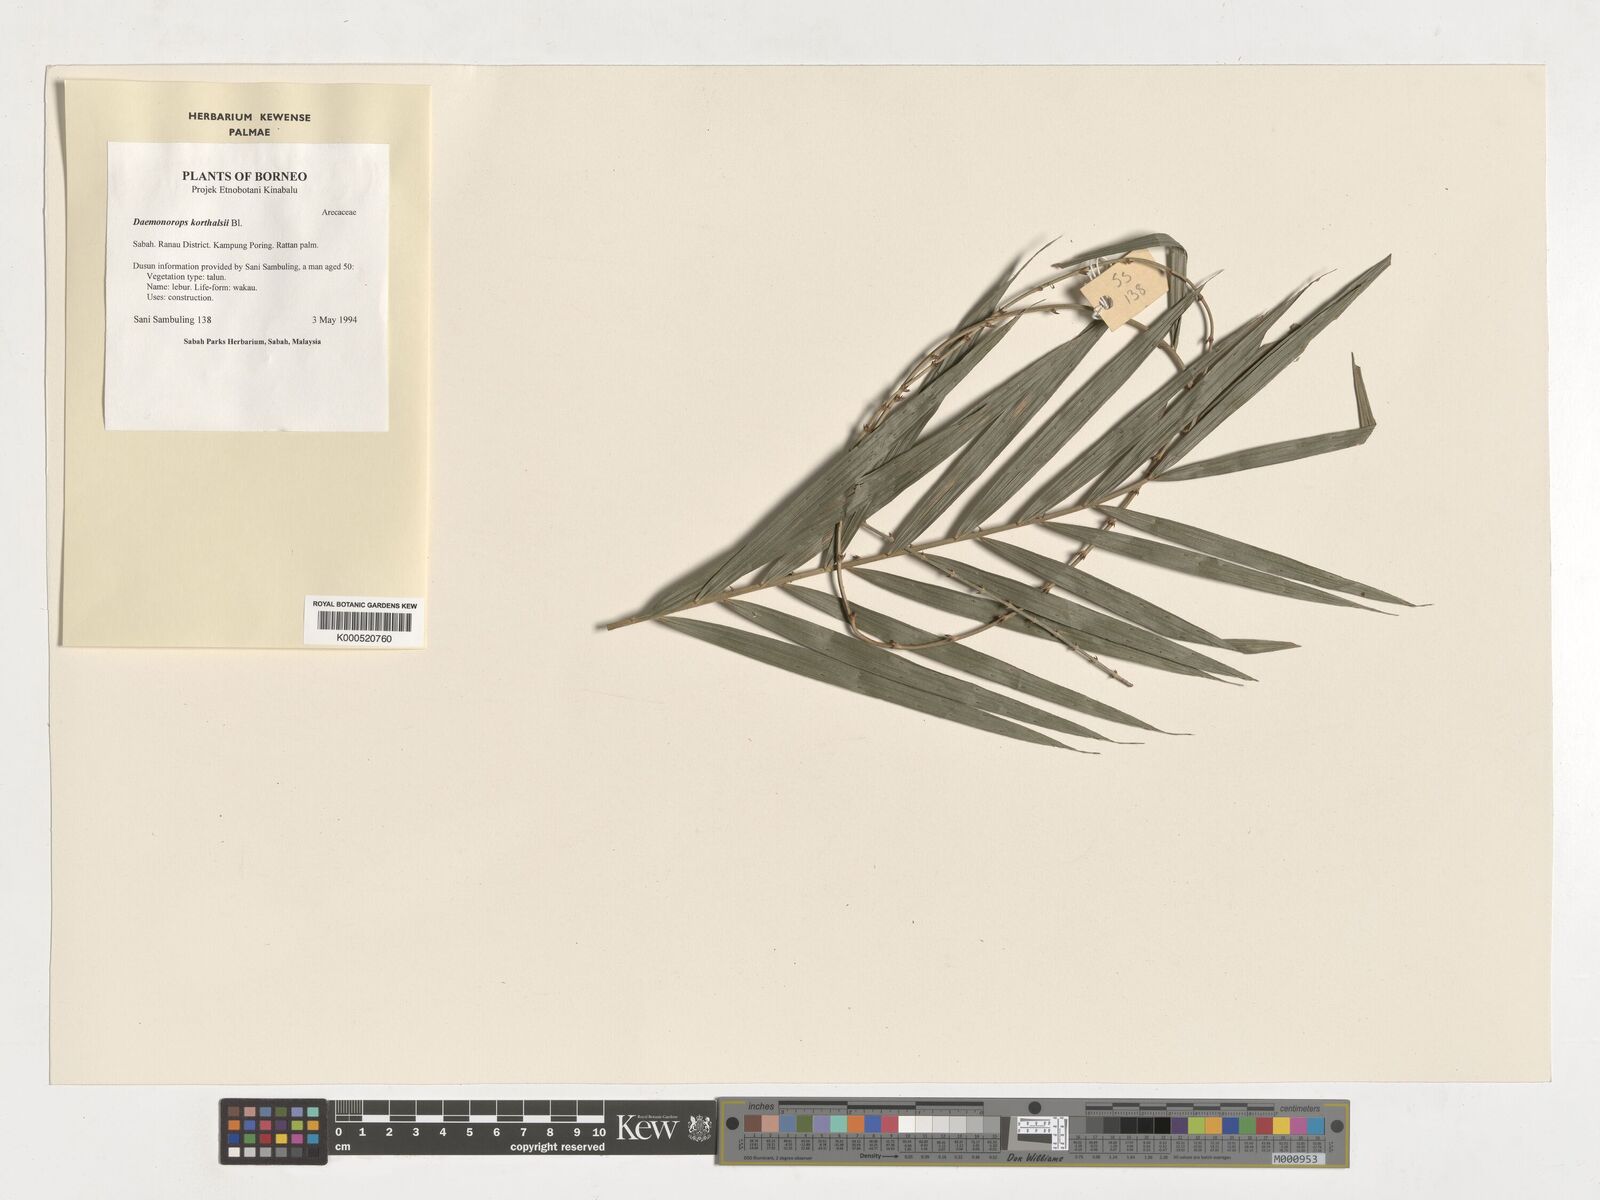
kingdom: Plantae
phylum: Tracheophyta
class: Liliopsida
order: Arecales
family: Arecaceae
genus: Calamus
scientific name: Calamus hirsutus
